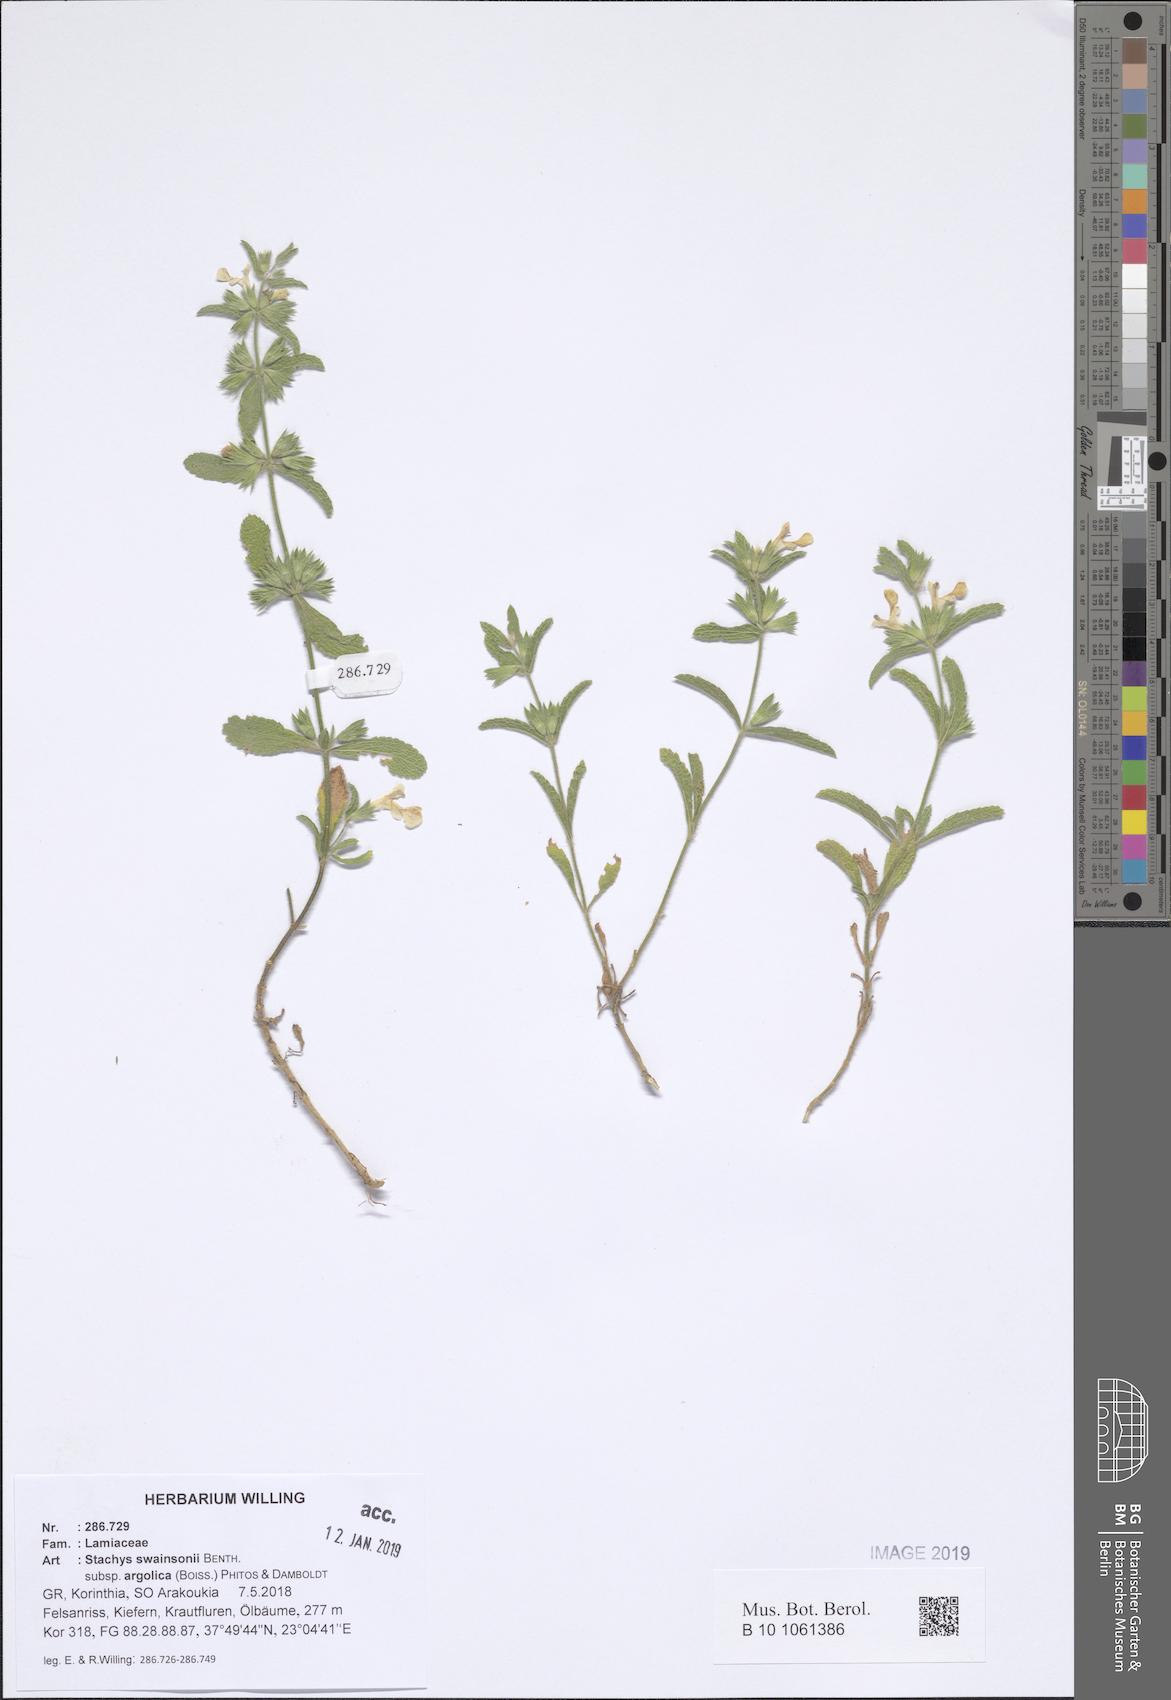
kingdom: Plantae
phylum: Tracheophyta
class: Magnoliopsida
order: Lamiales
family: Lamiaceae
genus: Stachys
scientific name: Stachys swainsonii
